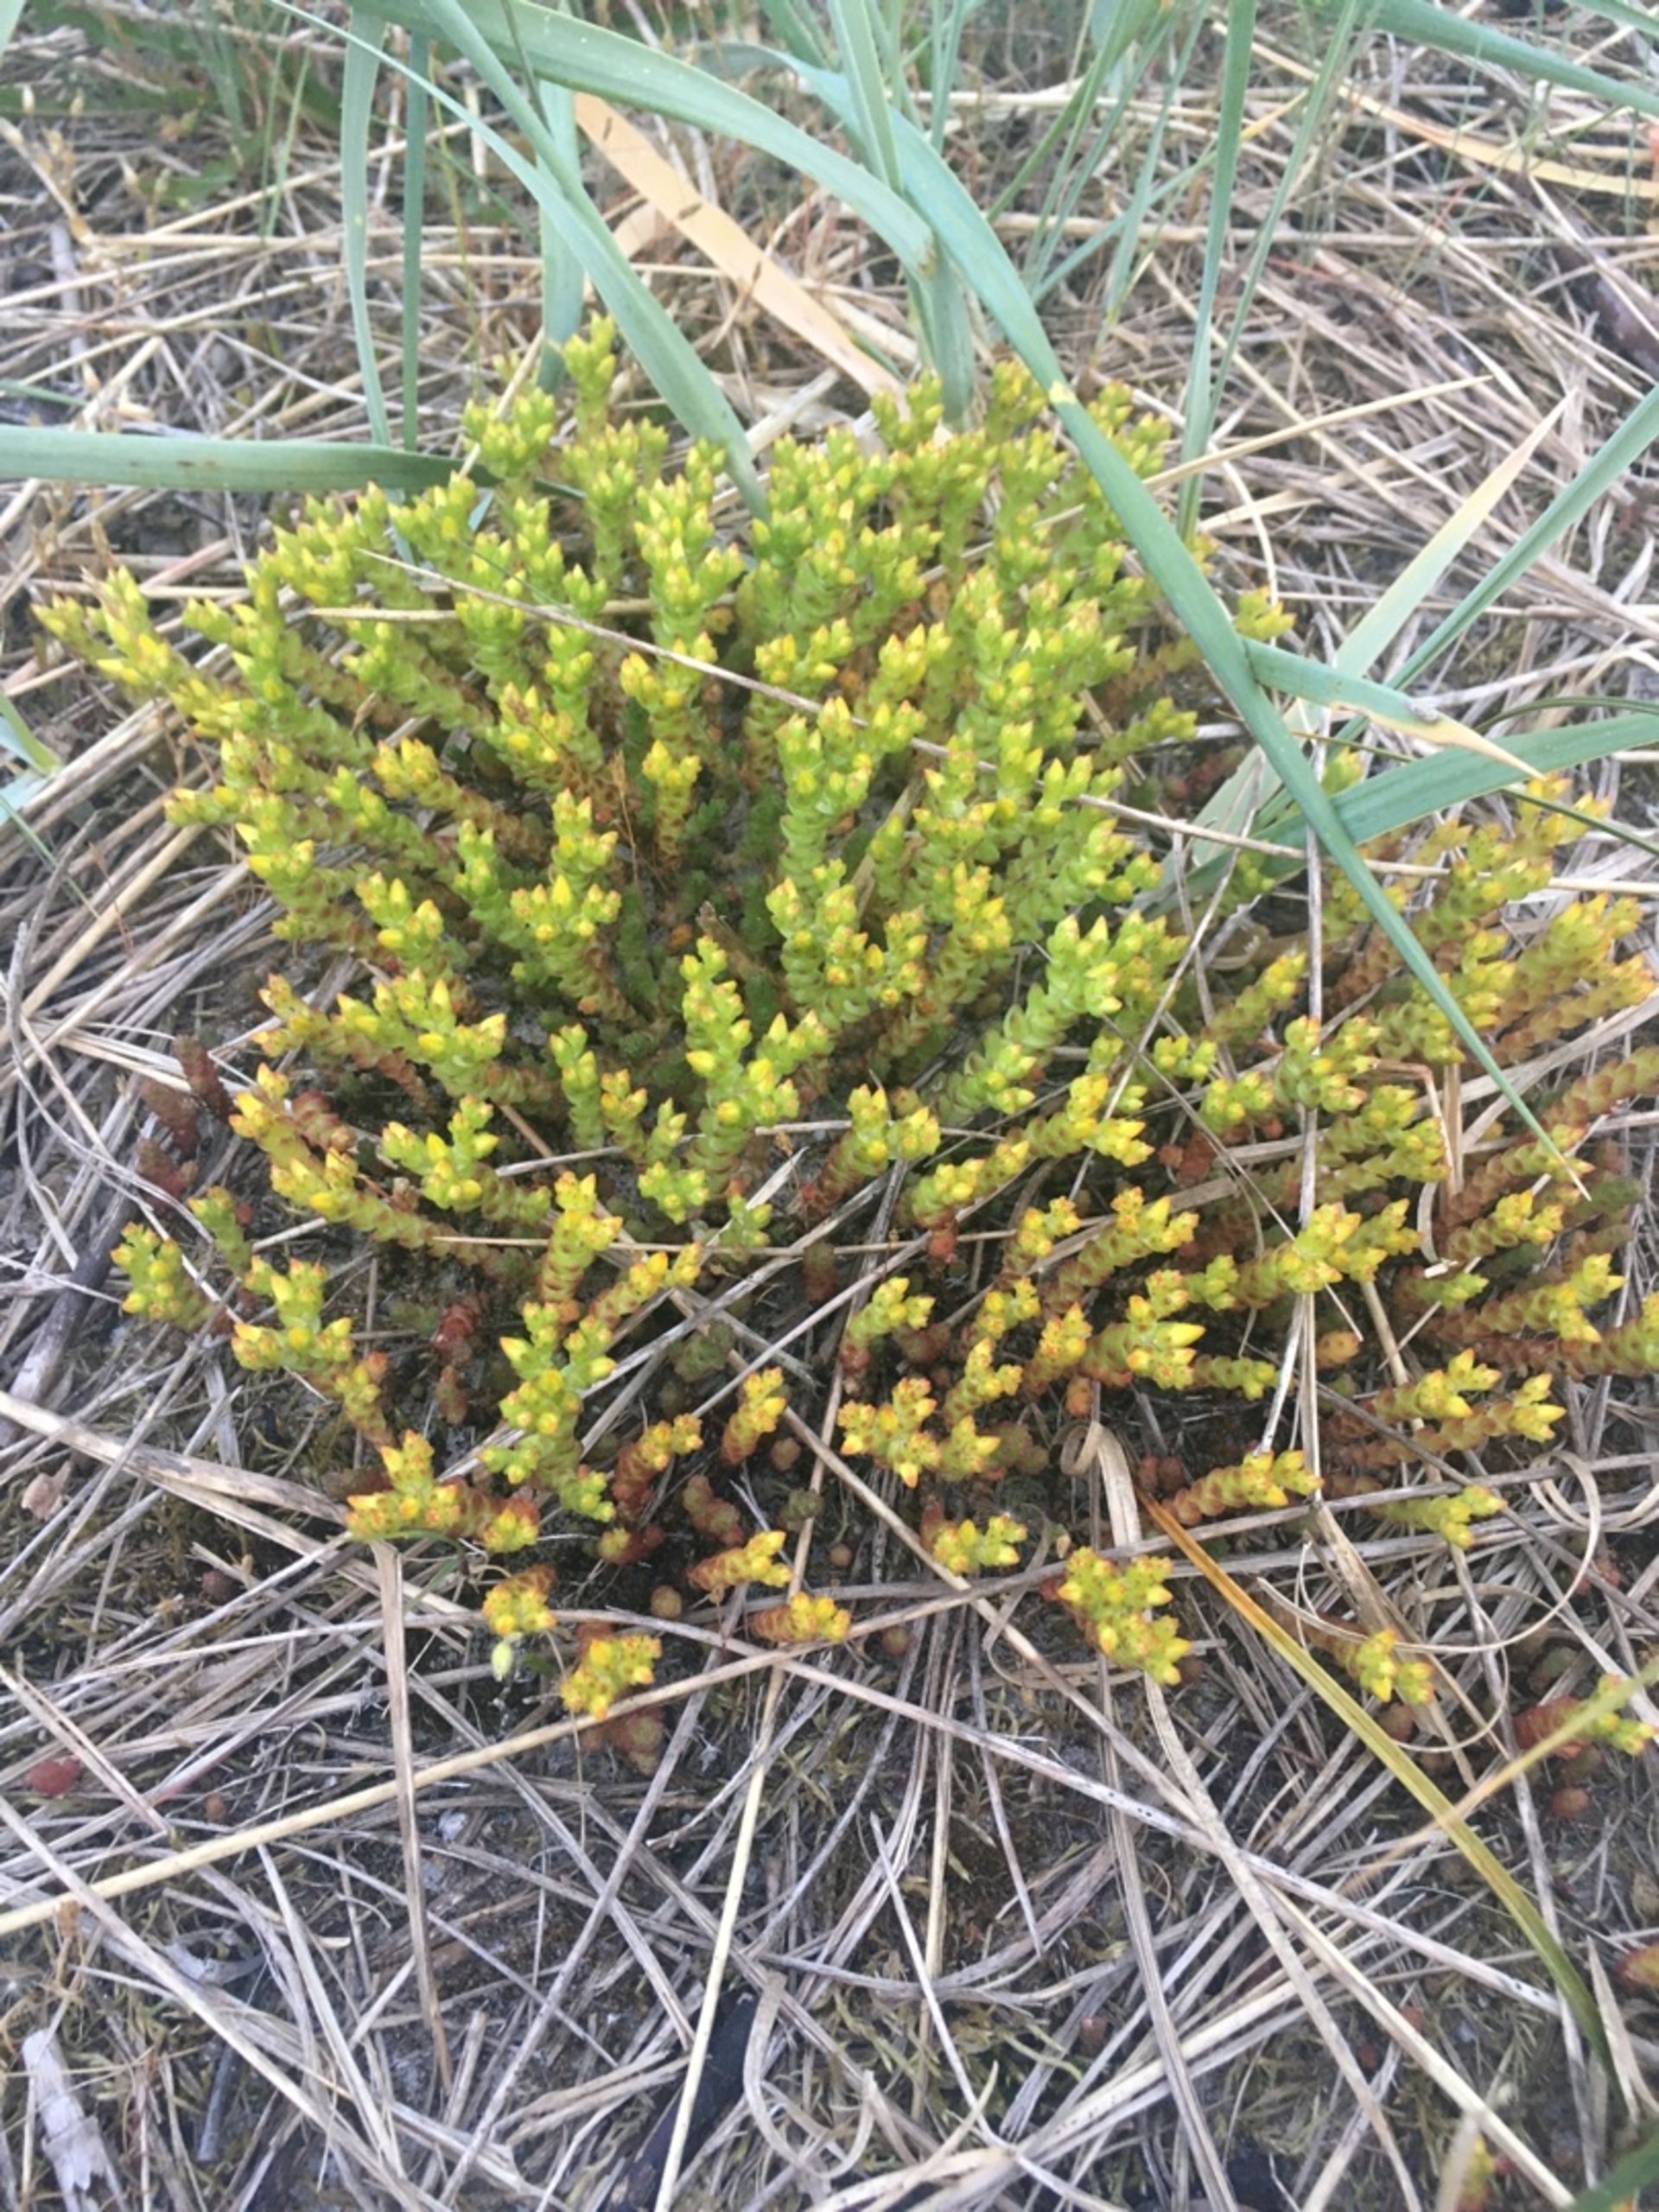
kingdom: Plantae
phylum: Tracheophyta
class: Magnoliopsida
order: Saxifragales
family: Crassulaceae
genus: Sedum
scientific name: Sedum acre
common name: Bidende stenurt
